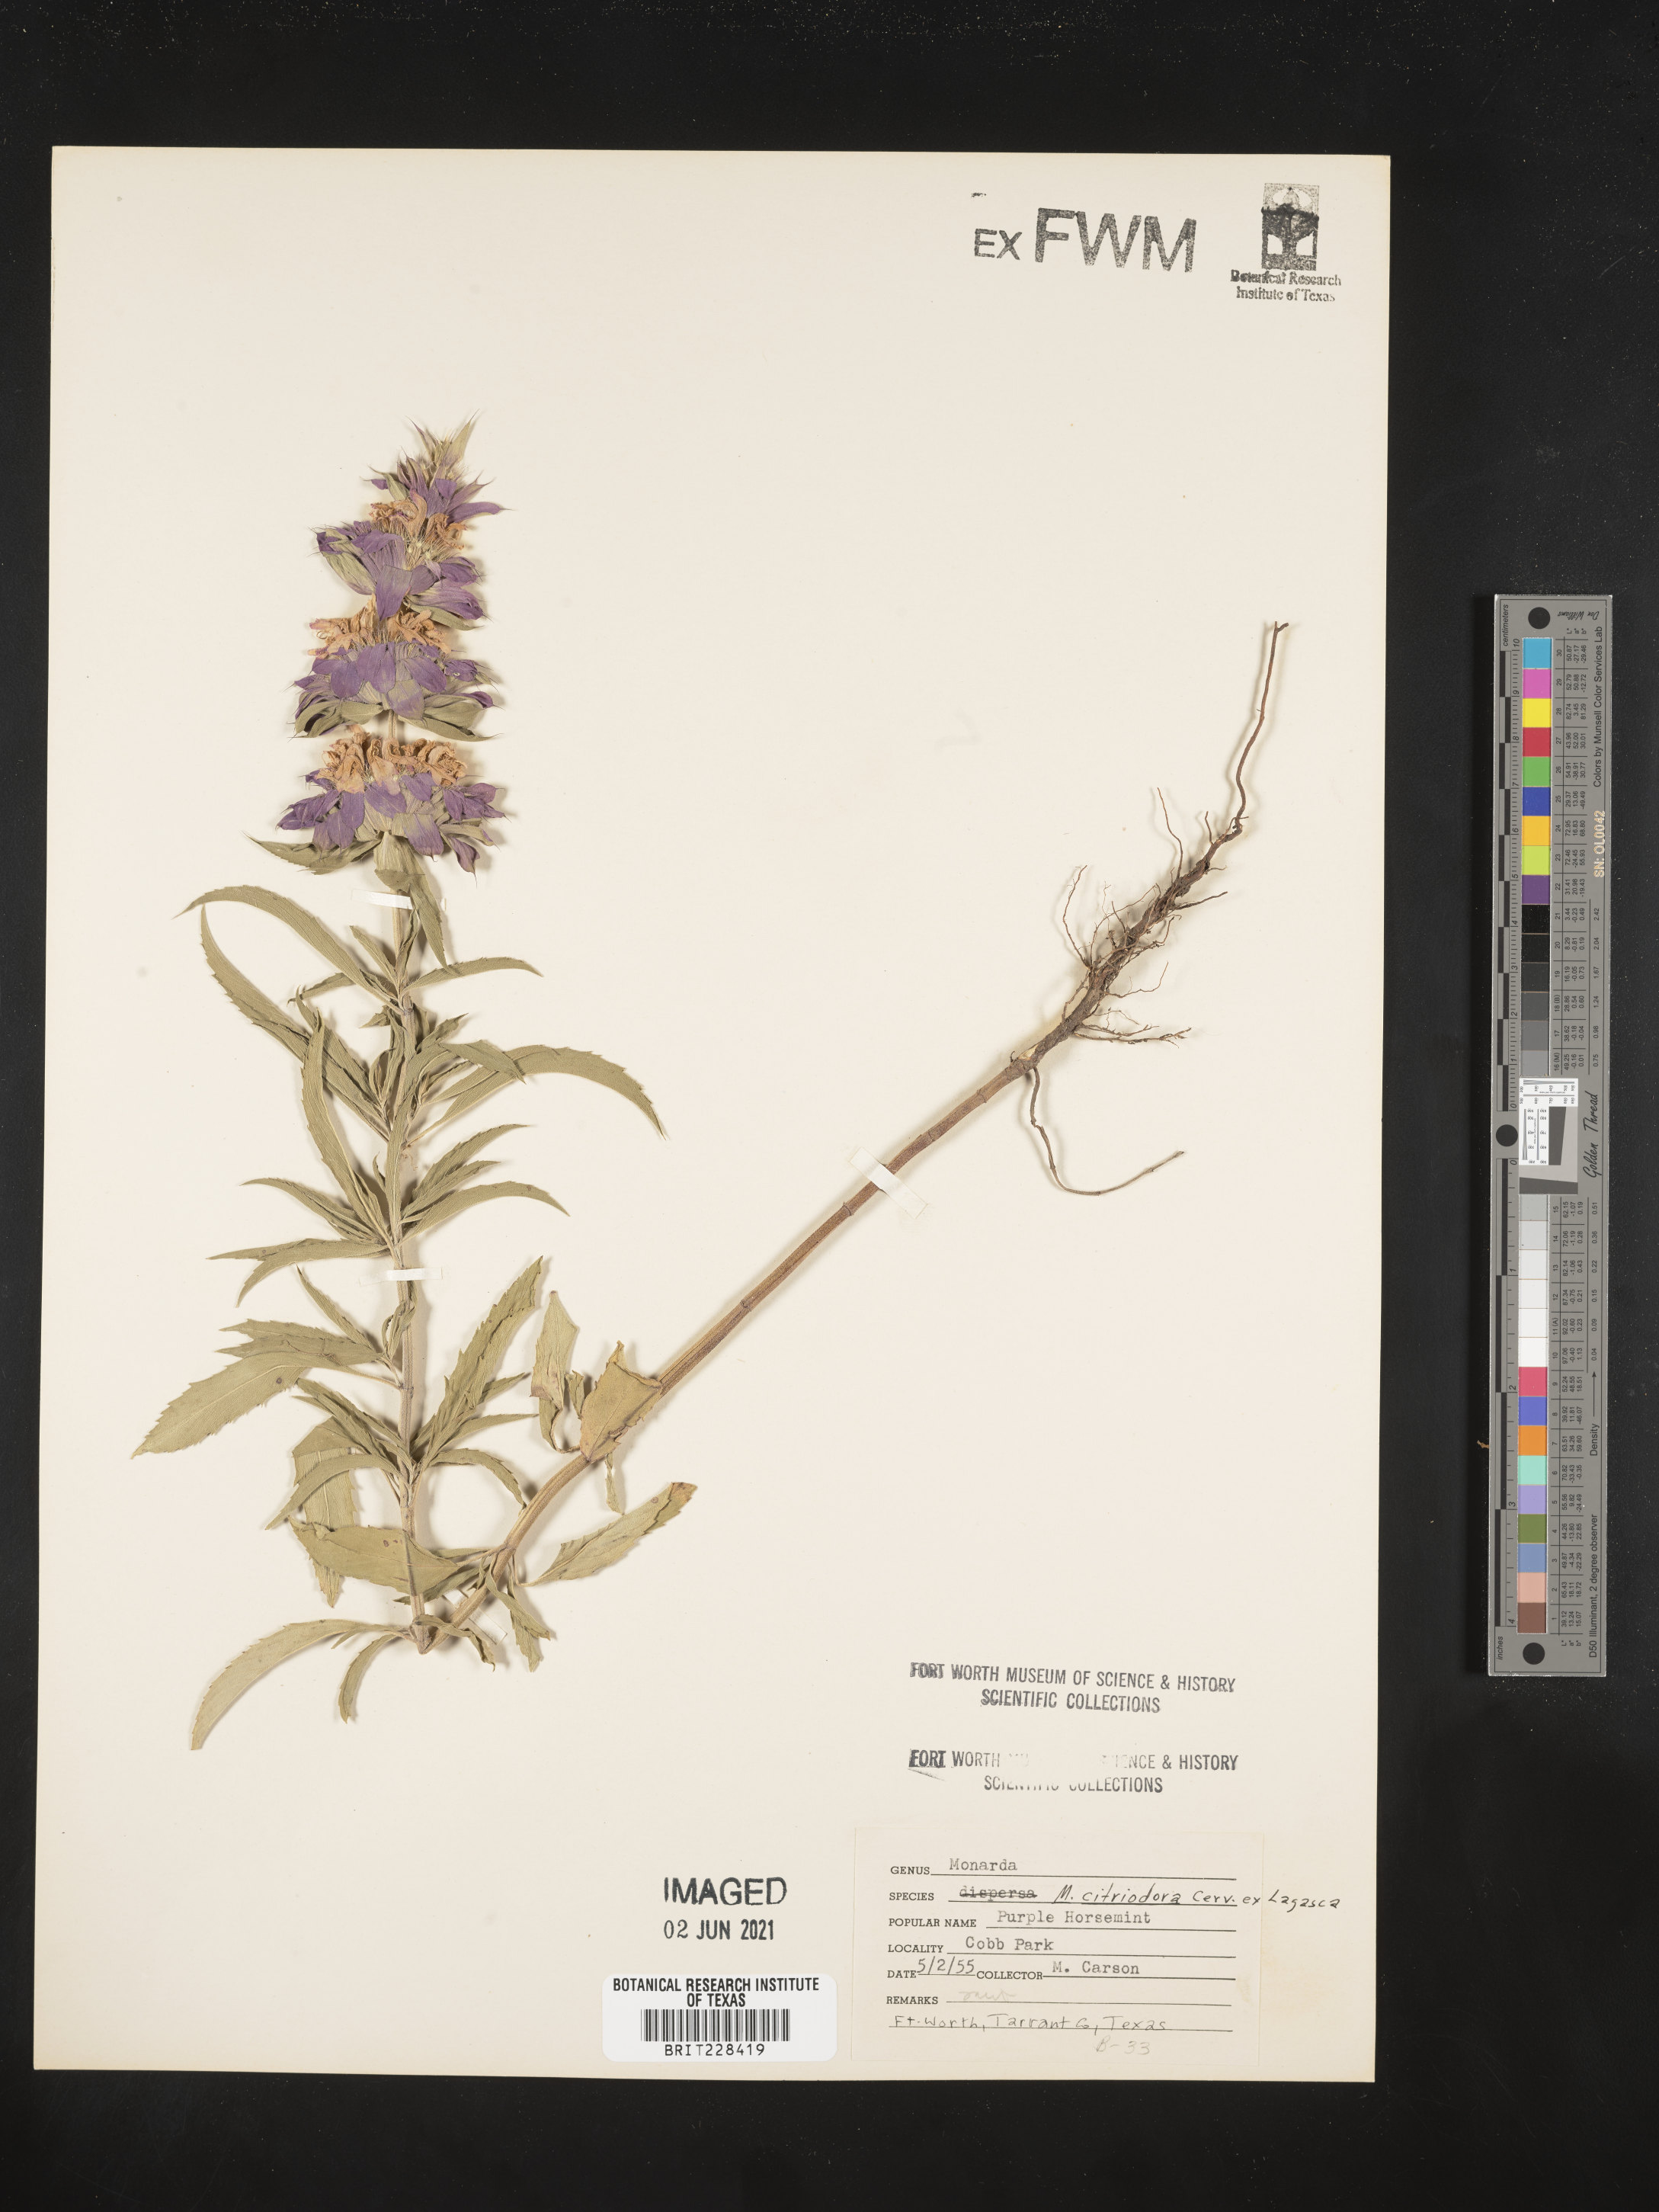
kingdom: Plantae
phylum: Tracheophyta
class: Magnoliopsida
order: Lamiales
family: Lamiaceae
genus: Monarda
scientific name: Monarda citriodora
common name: Lemon beebalm
